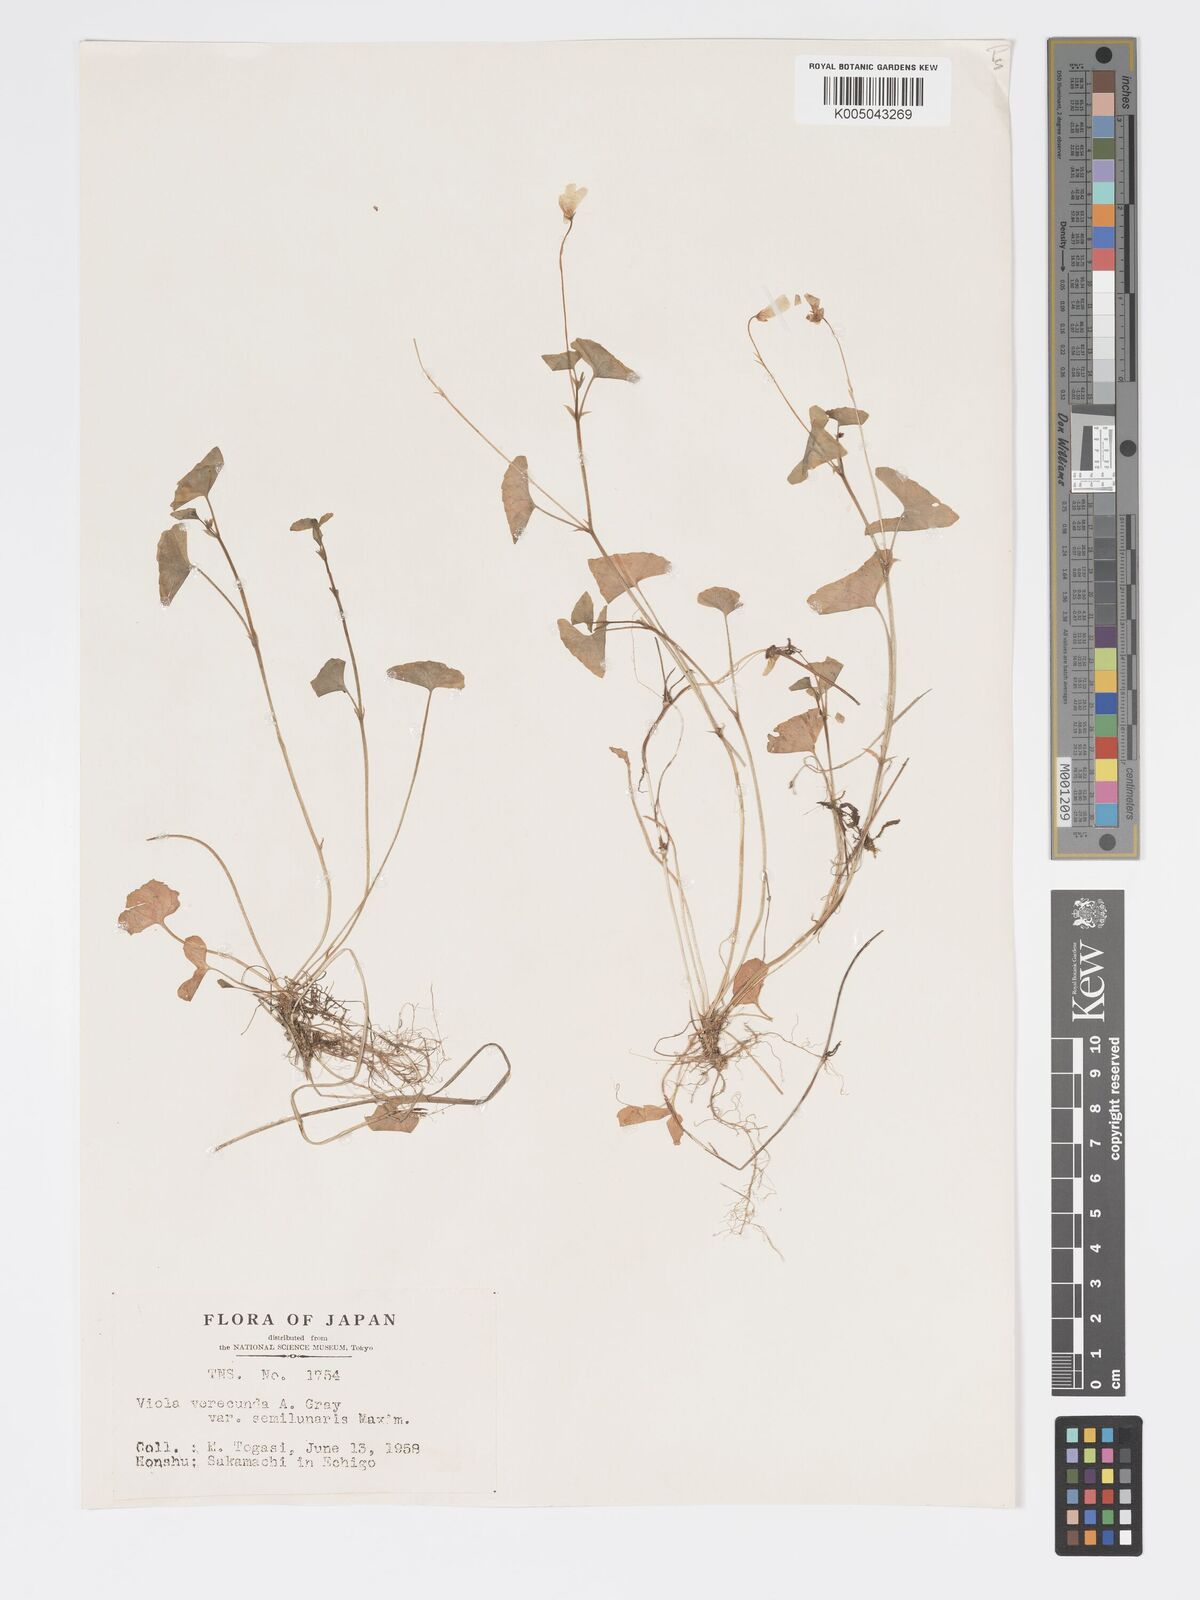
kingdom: Plantae
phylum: Tracheophyta
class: Magnoliopsida
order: Malpighiales
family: Violaceae
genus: Viola
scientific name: Viola hamiltoniana
